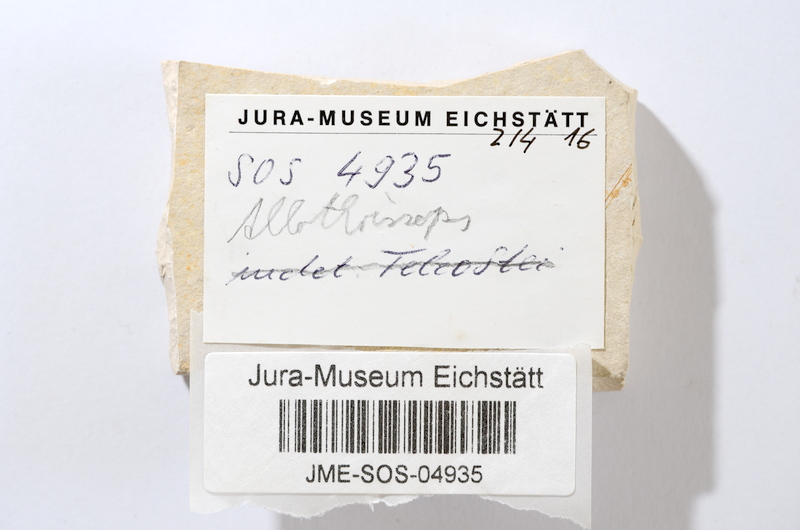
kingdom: Animalia
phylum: Chordata
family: Allothrissopidae
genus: Allothrissops
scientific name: Allothrissops mesogaster
